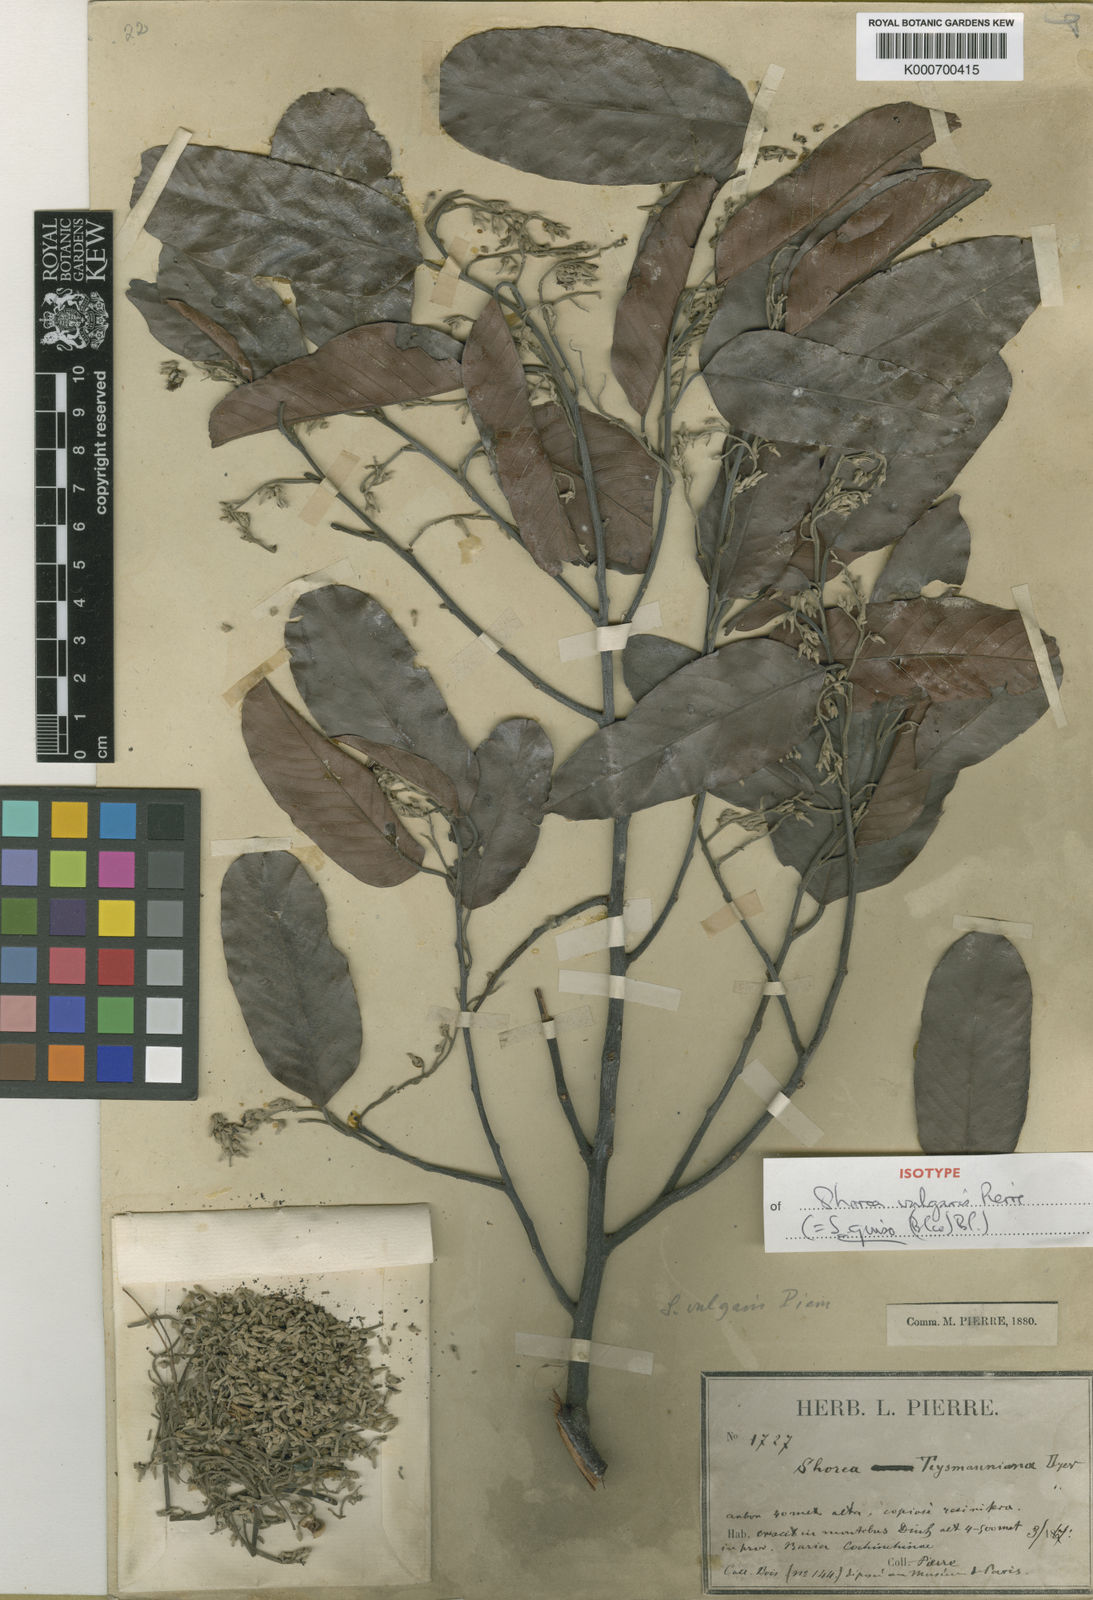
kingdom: Plantae
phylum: Tracheophyta
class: Magnoliopsida
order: Malvales
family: Dipterocarpaceae
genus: Shorea
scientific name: Shorea guiso
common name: Red balau
